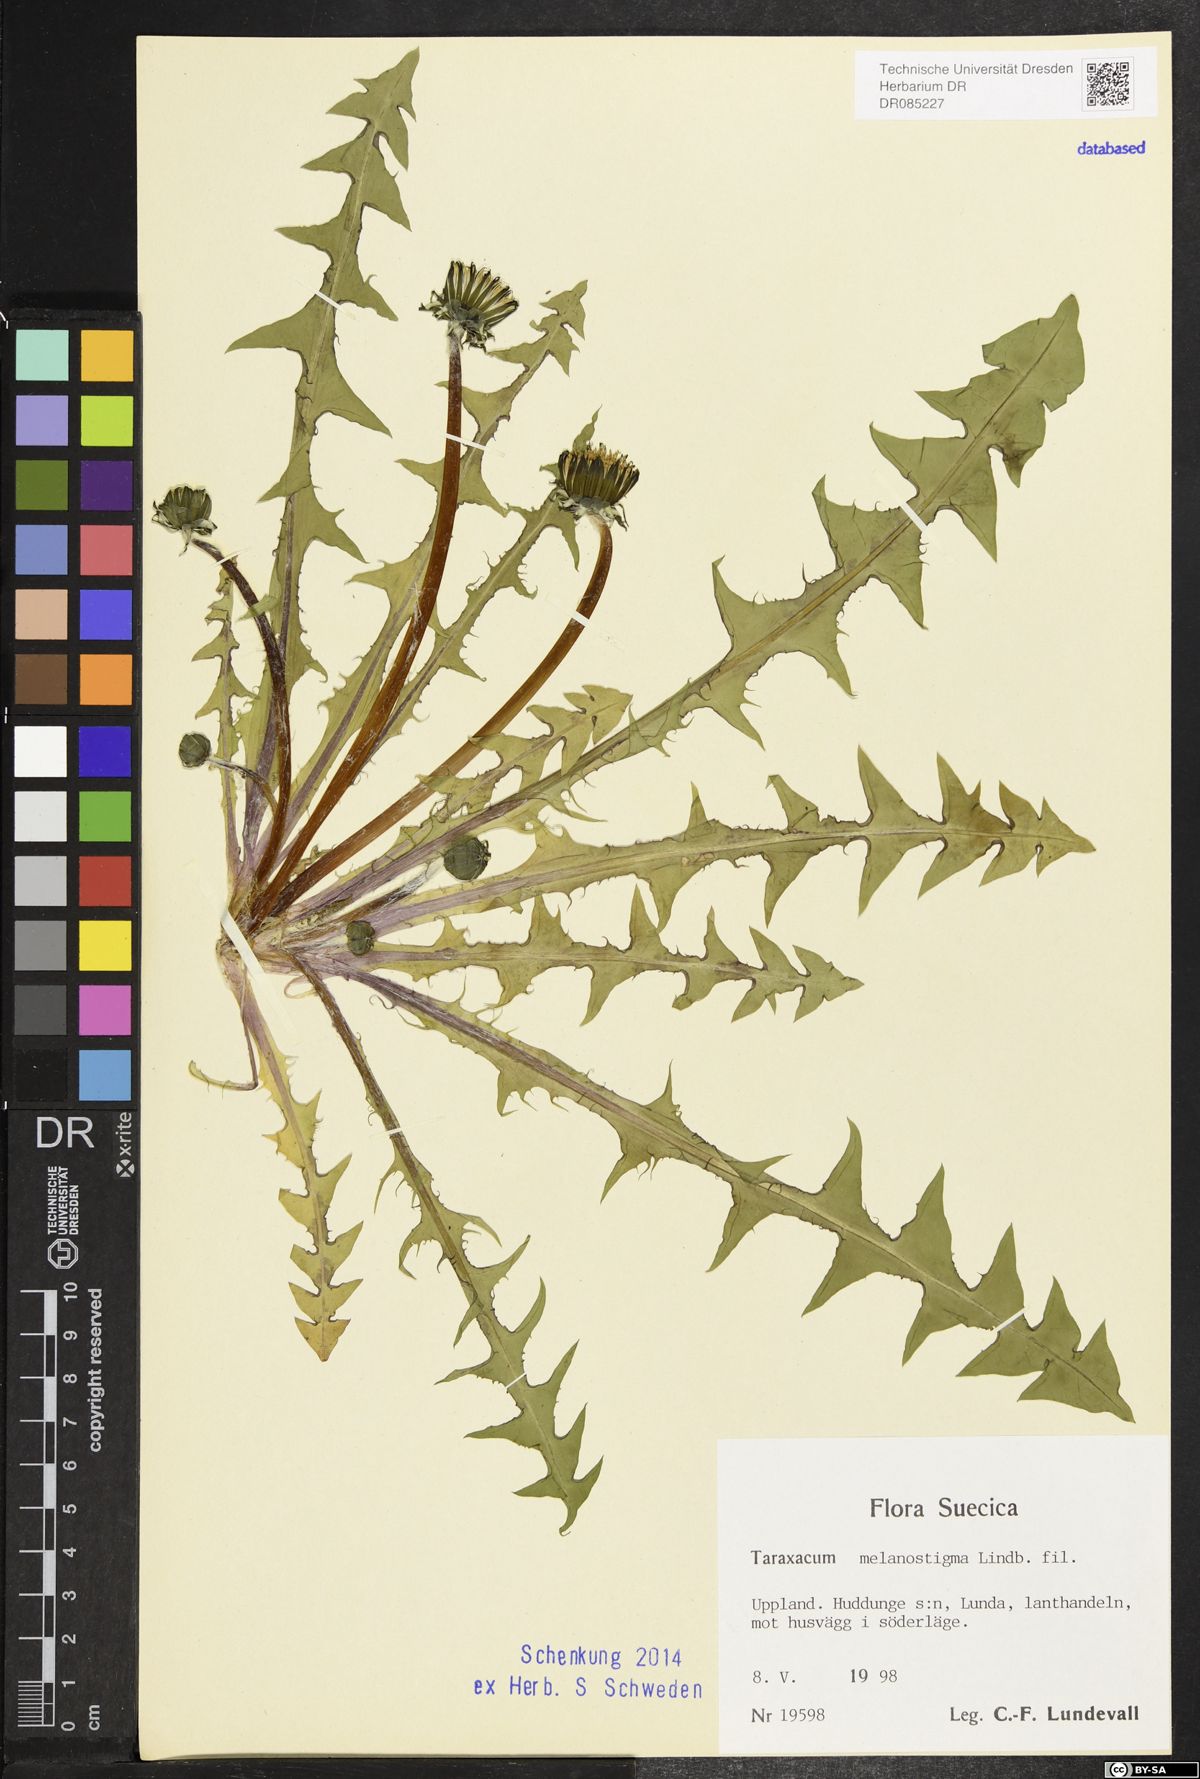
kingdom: Plantae
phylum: Tracheophyta
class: Magnoliopsida
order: Asterales
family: Asteraceae
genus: Taraxacum
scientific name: Taraxacum melanostigma
